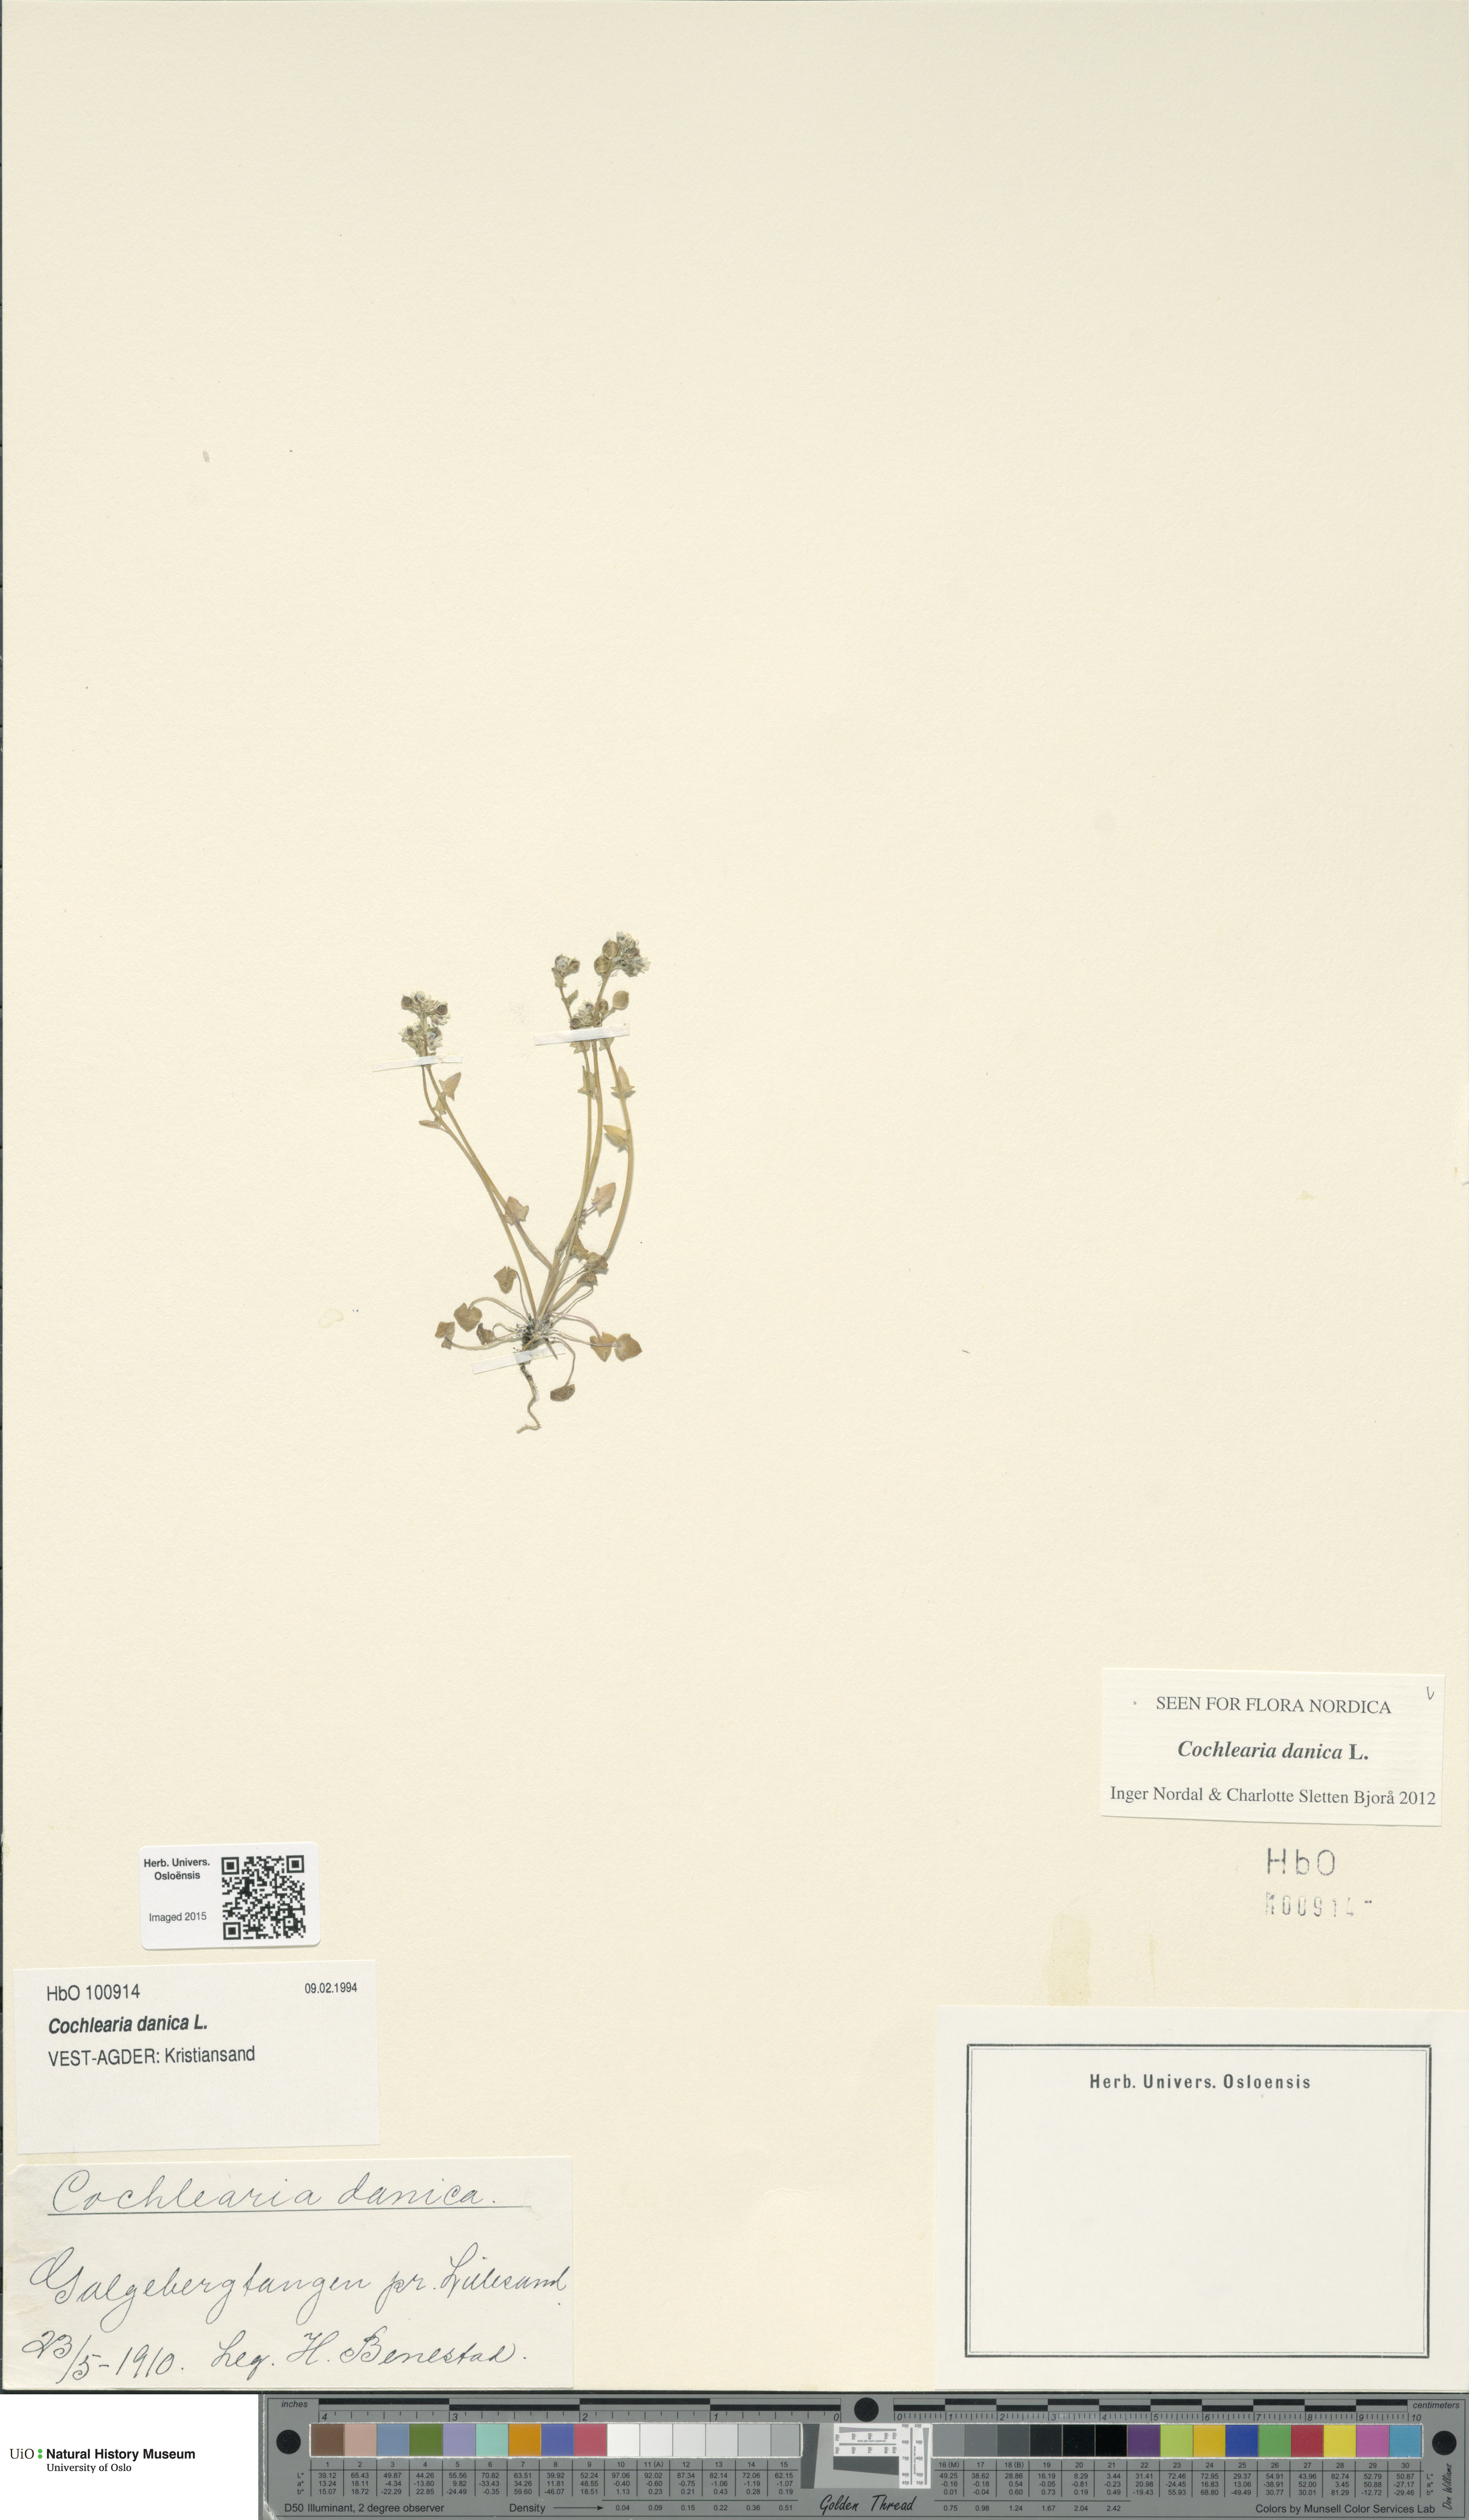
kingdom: Plantae
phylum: Tracheophyta
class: Magnoliopsida
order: Brassicales
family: Brassicaceae
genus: Cochlearia
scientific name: Cochlearia danica
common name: Early scurvygrass
